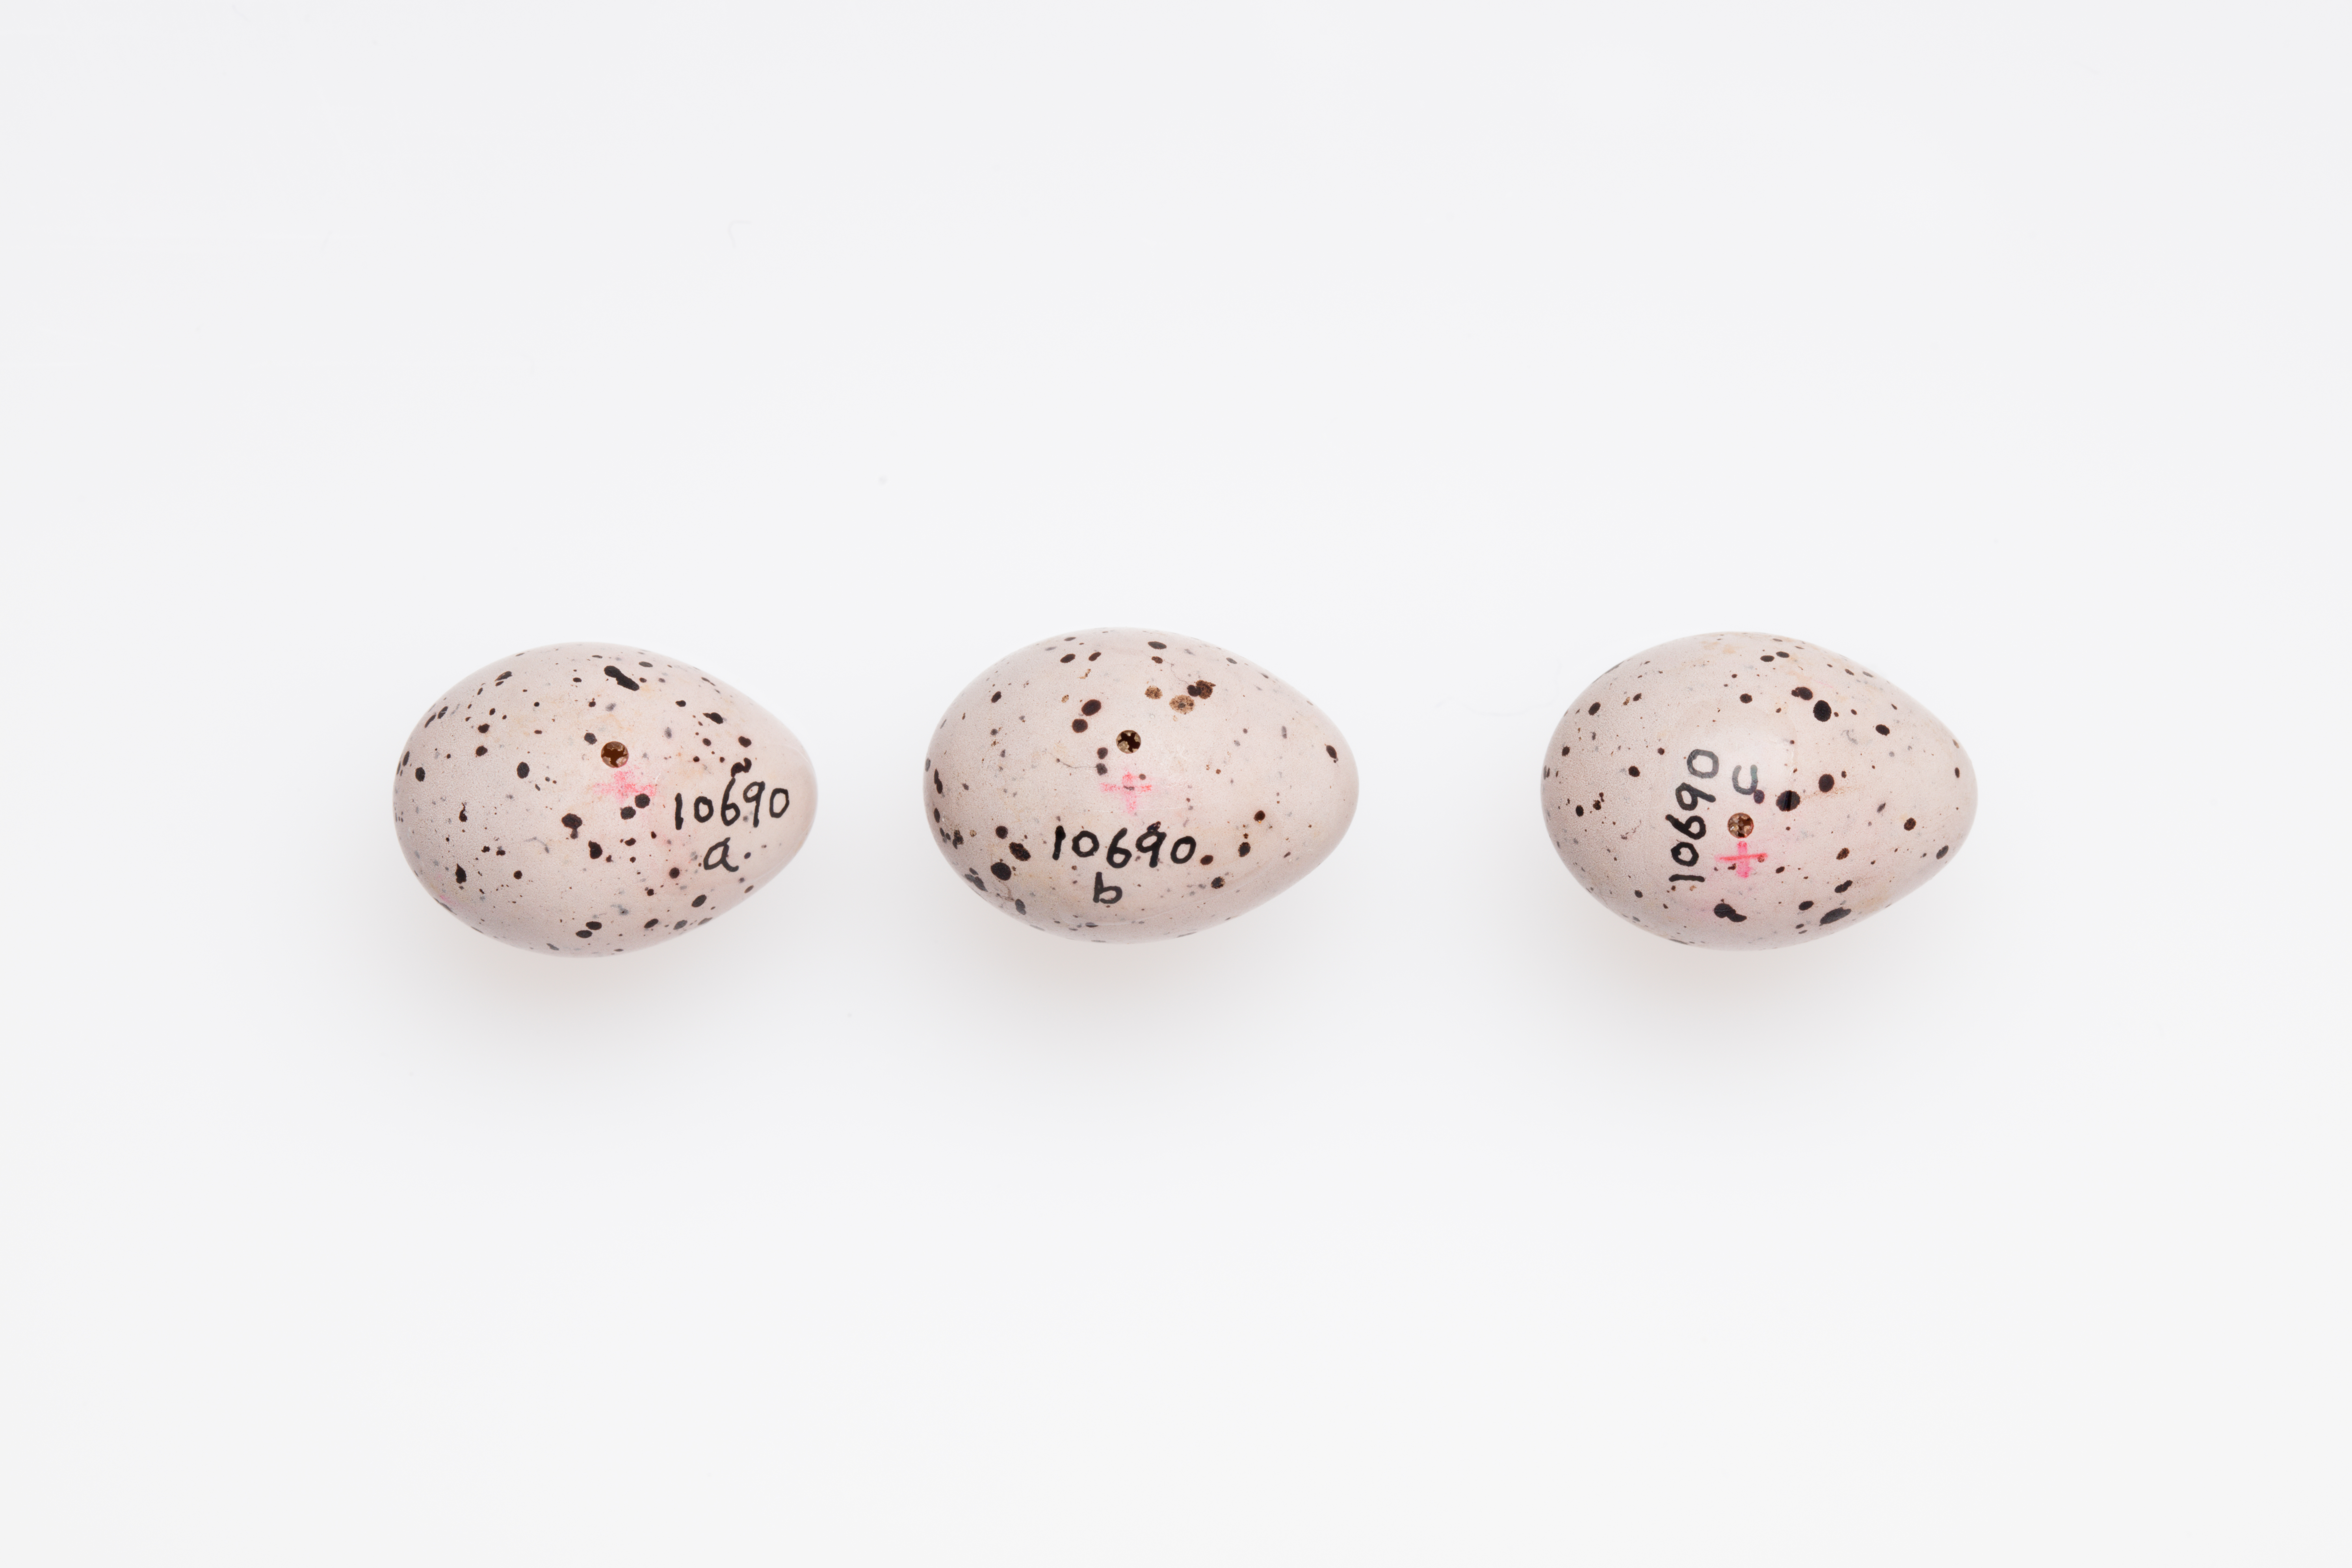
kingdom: Animalia
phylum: Chordata
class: Aves
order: Passeriformes
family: Acrocephalidae
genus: Hippolais
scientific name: Hippolais icterina
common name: Icterine warbler
